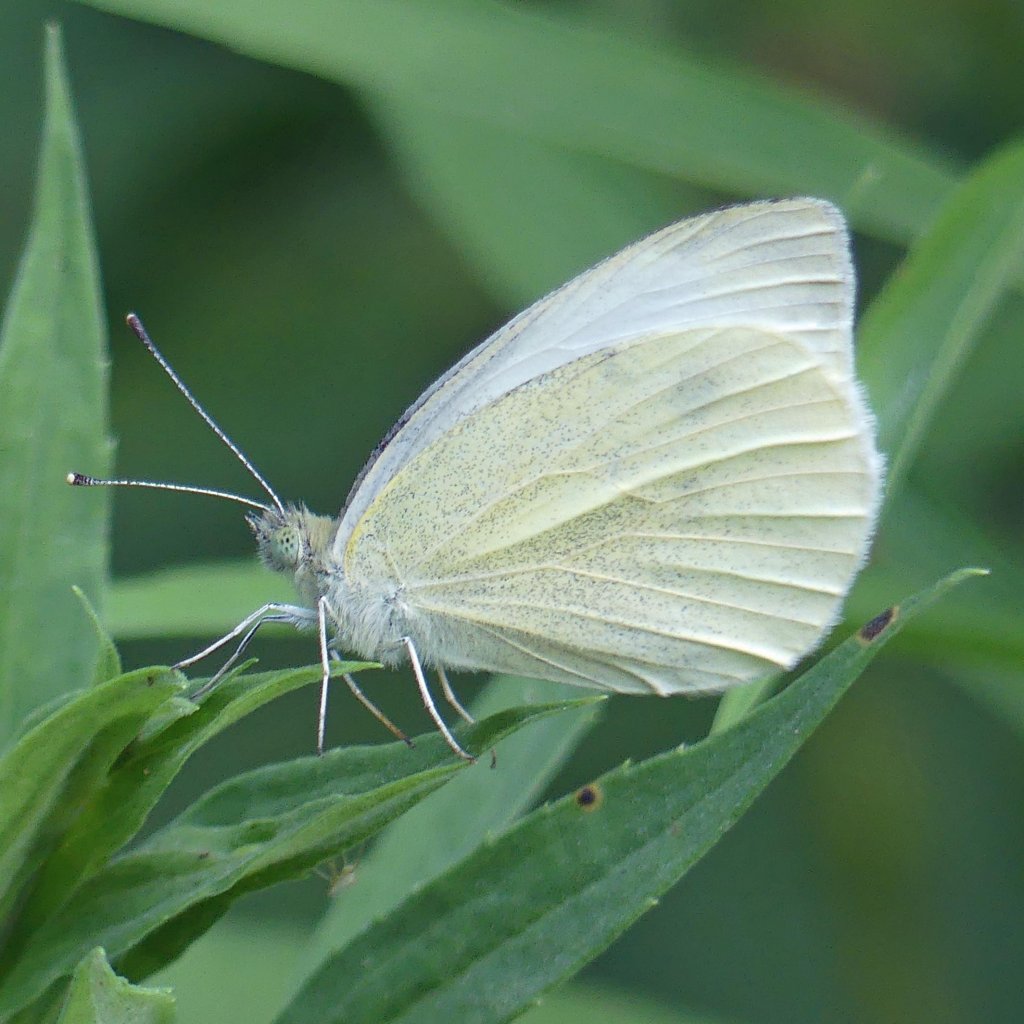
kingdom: Animalia
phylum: Arthropoda
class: Insecta
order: Lepidoptera
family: Pieridae
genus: Pieris
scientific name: Pieris rapae
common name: Cabbage White
